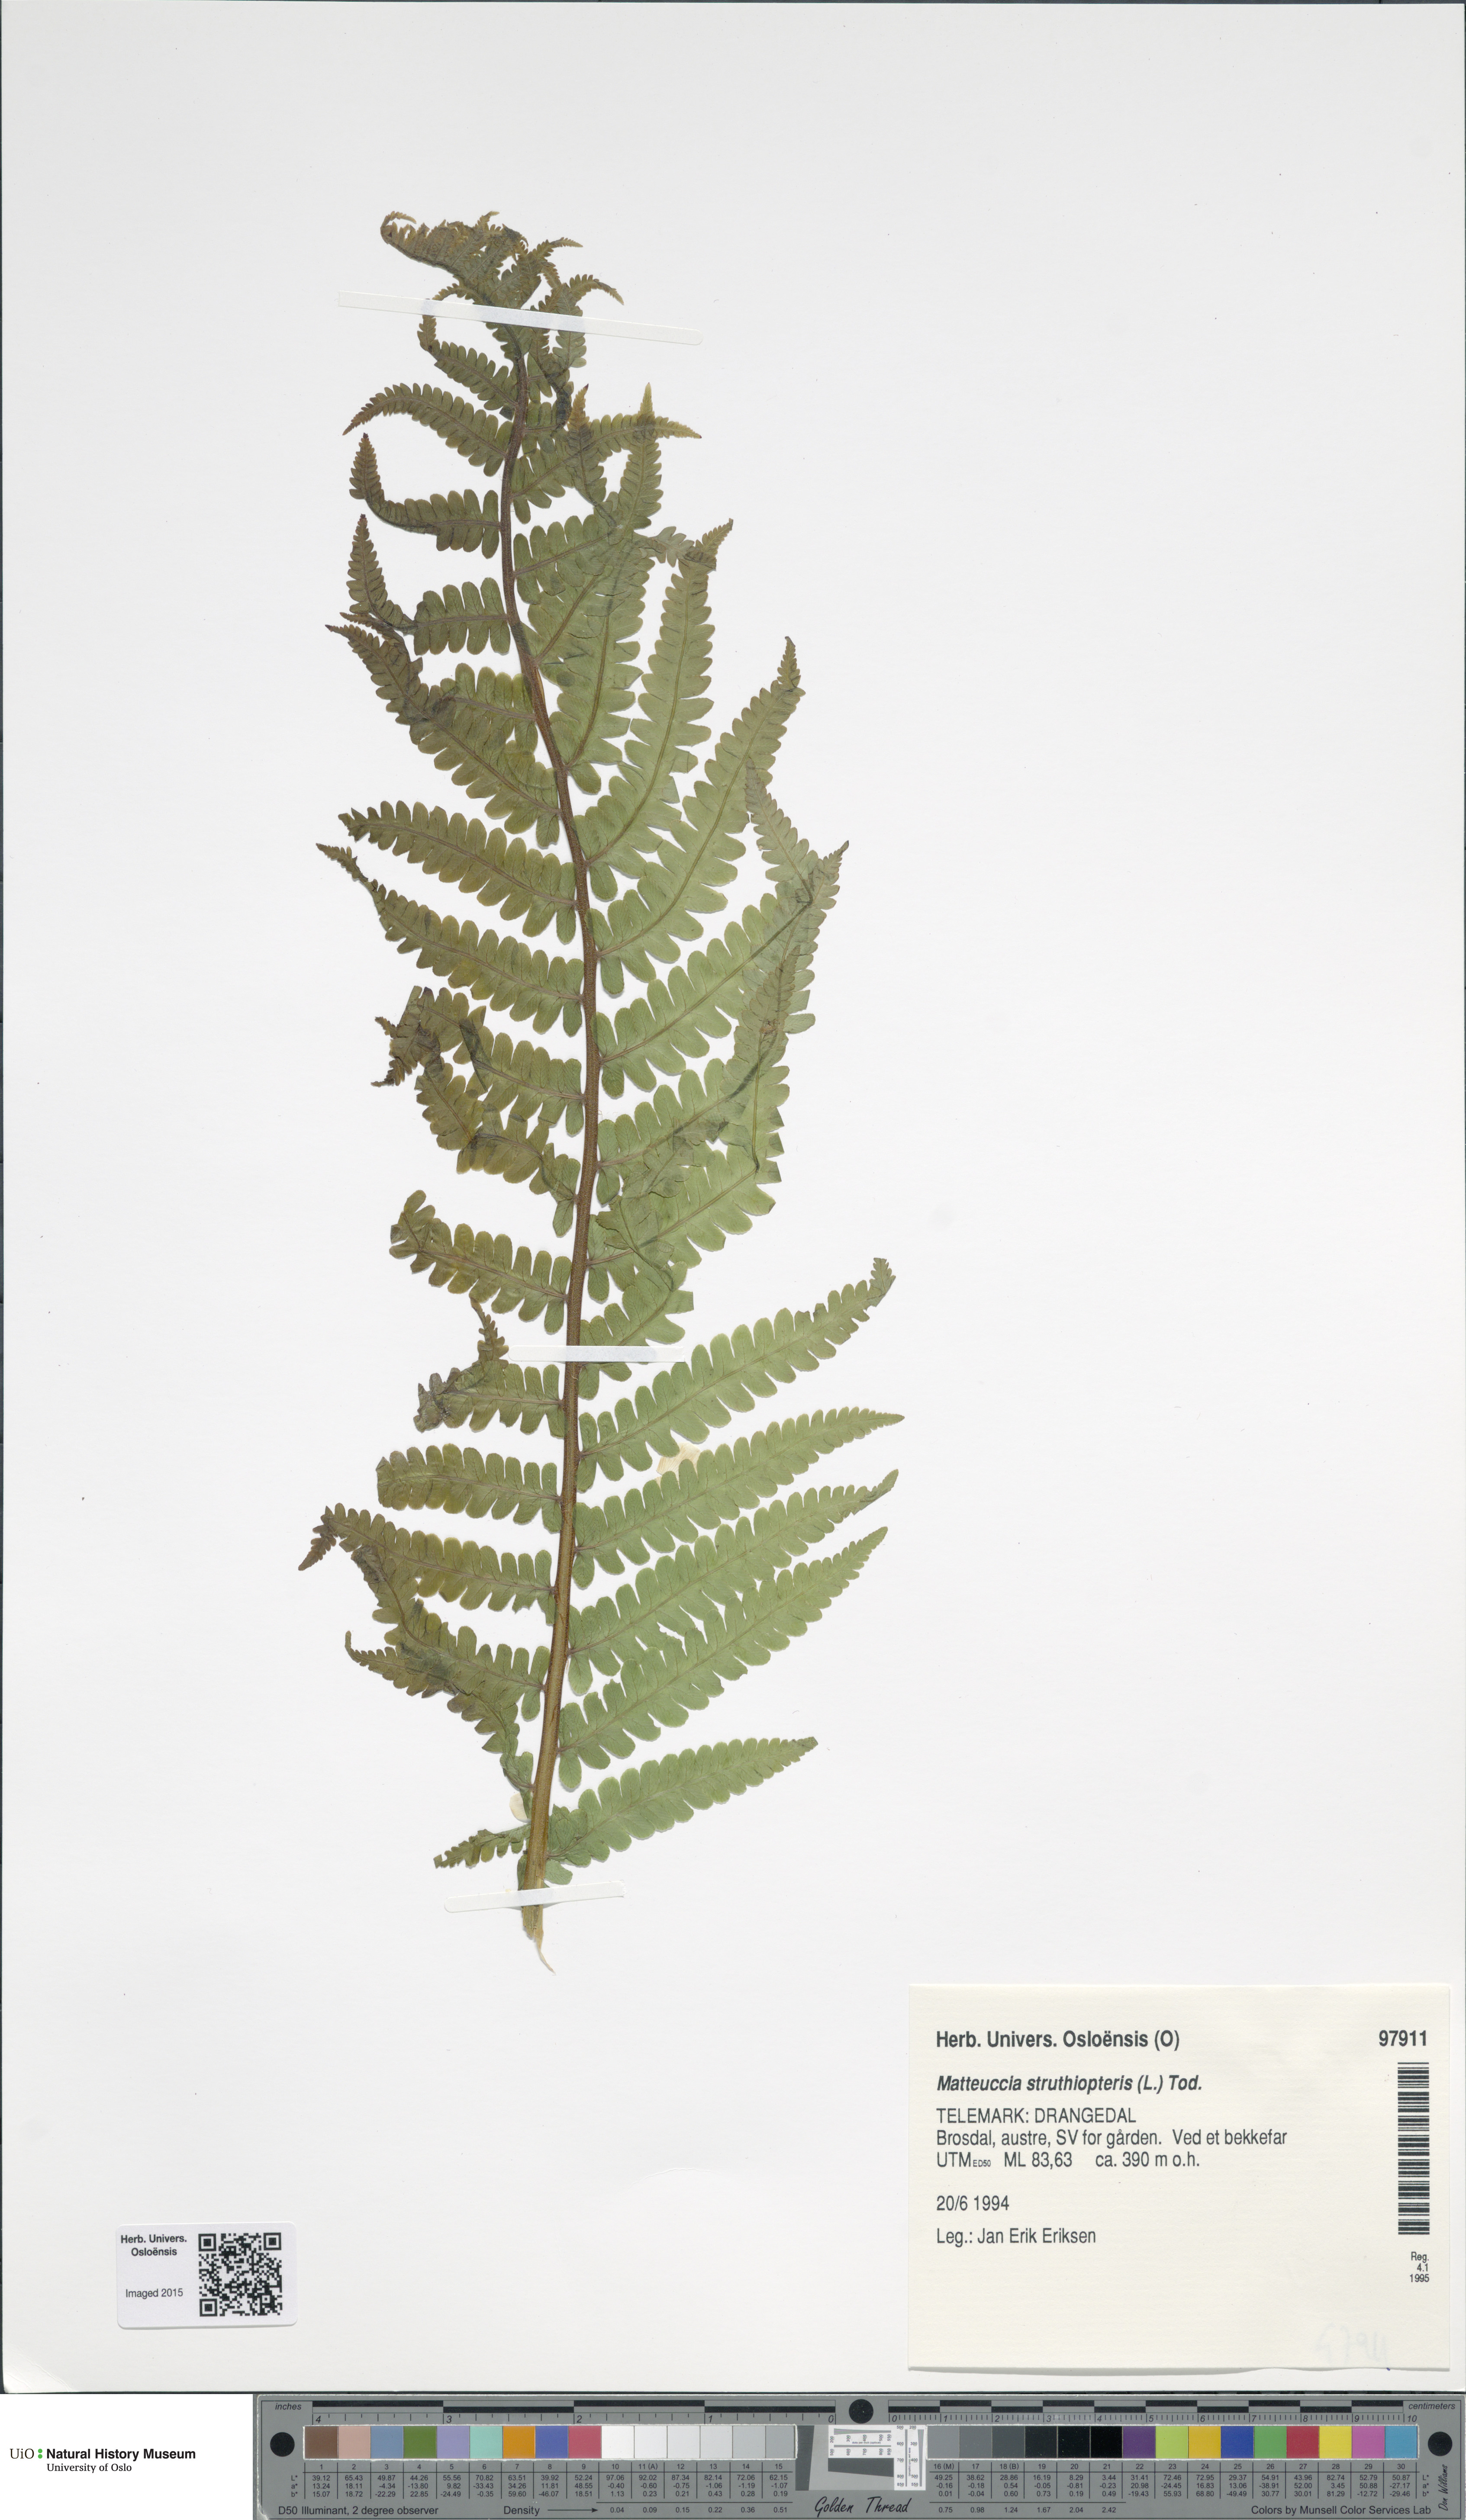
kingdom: Plantae
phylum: Tracheophyta
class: Polypodiopsida
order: Polypodiales
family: Onocleaceae
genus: Matteuccia
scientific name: Matteuccia struthiopteris
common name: Ostrich fern
